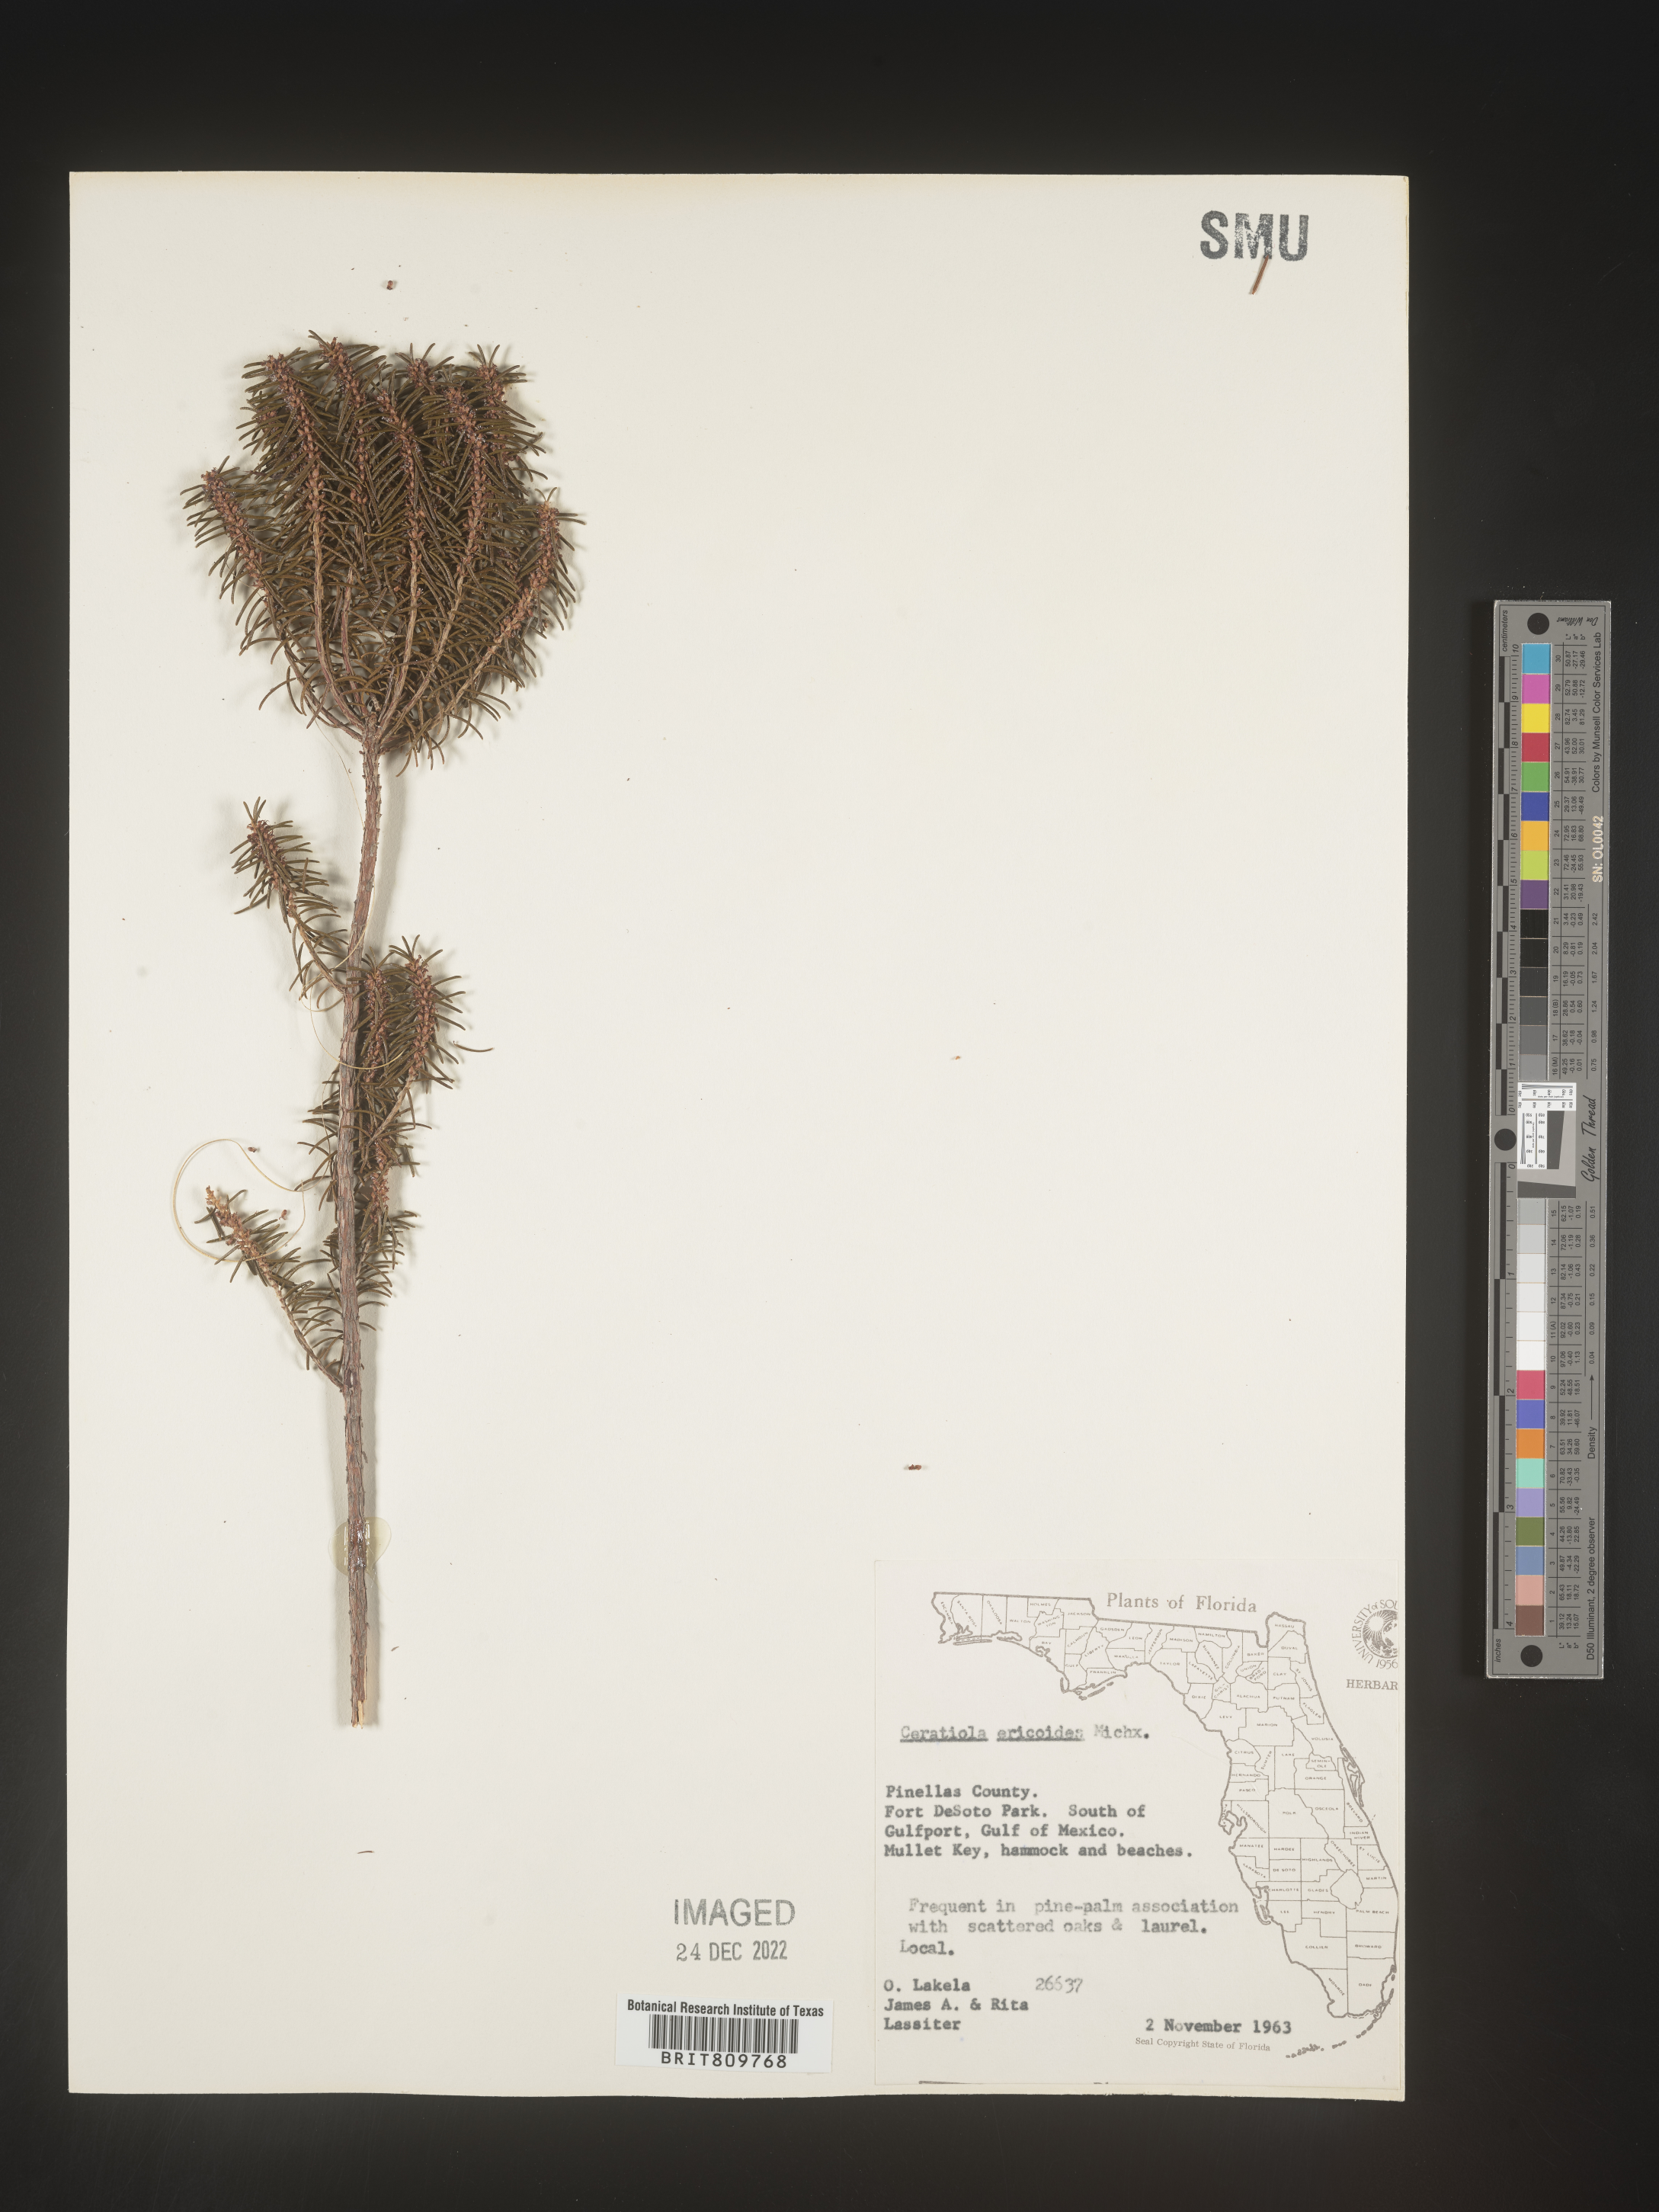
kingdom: Plantae
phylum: Tracheophyta
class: Magnoliopsida
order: Ericales
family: Ericaceae
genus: Ceratiola
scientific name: Ceratiola ericoides
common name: Sandhill-rosemary
